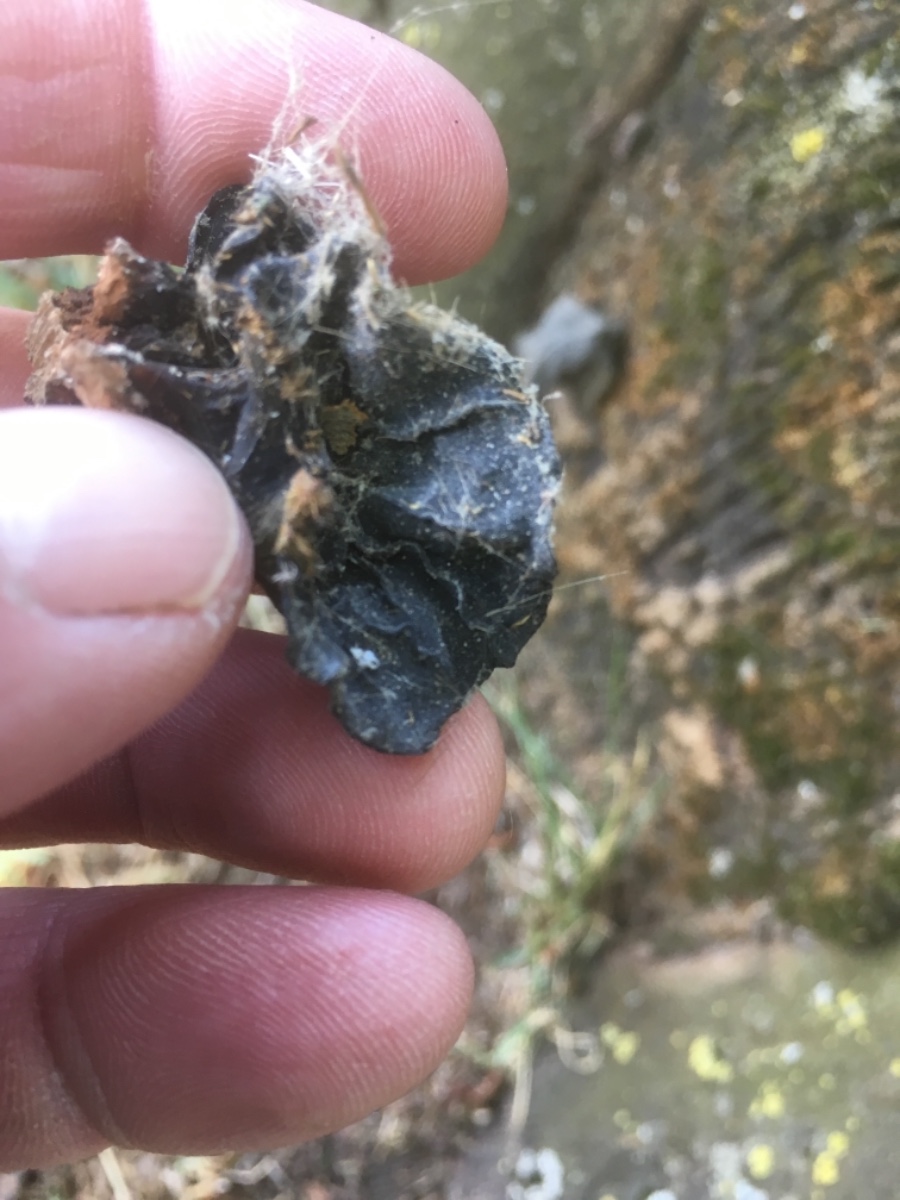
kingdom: Fungi
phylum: Basidiomycota
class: Agaricomycetes
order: Auriculariales
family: Auriculariaceae
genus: Auricularia
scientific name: Auricularia auricula-judae
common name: almindelig judasøre
